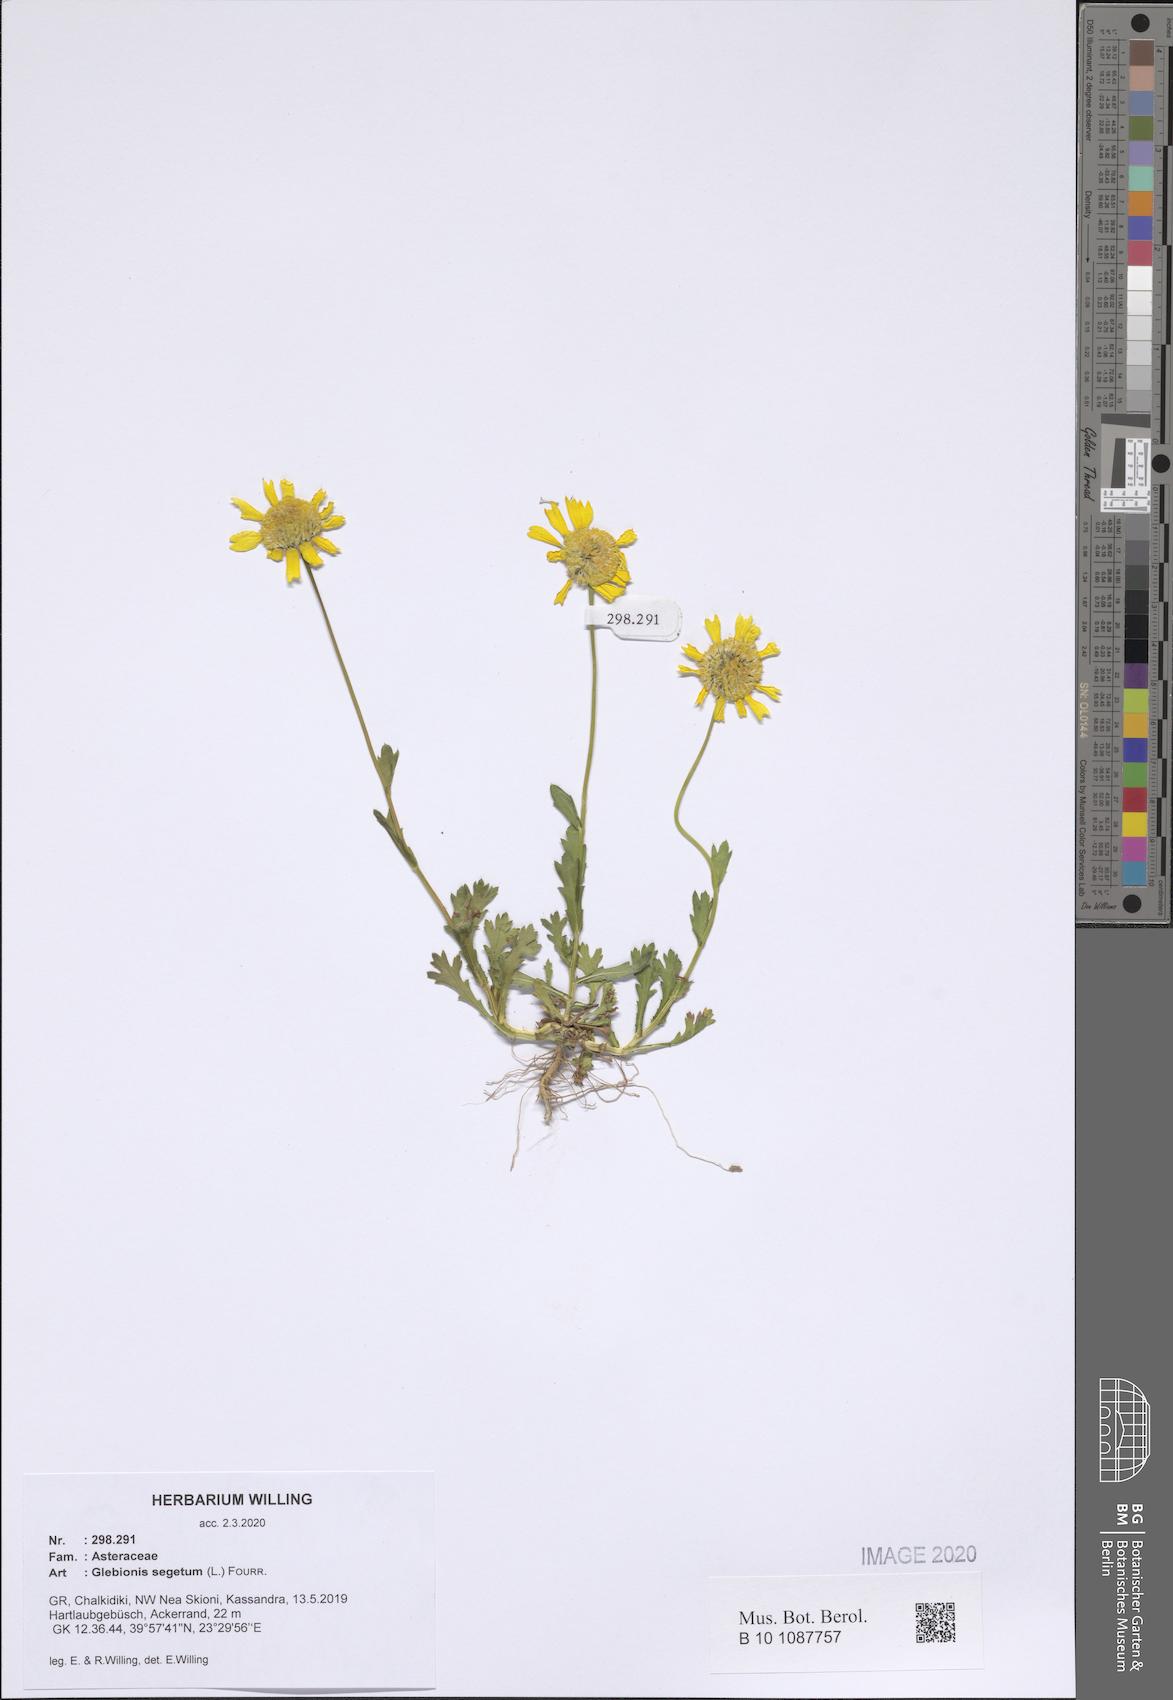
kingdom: Plantae
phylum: Tracheophyta
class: Magnoliopsida
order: Asterales
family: Asteraceae
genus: Glebionis
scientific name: Glebionis segetum
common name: Corndaisy
